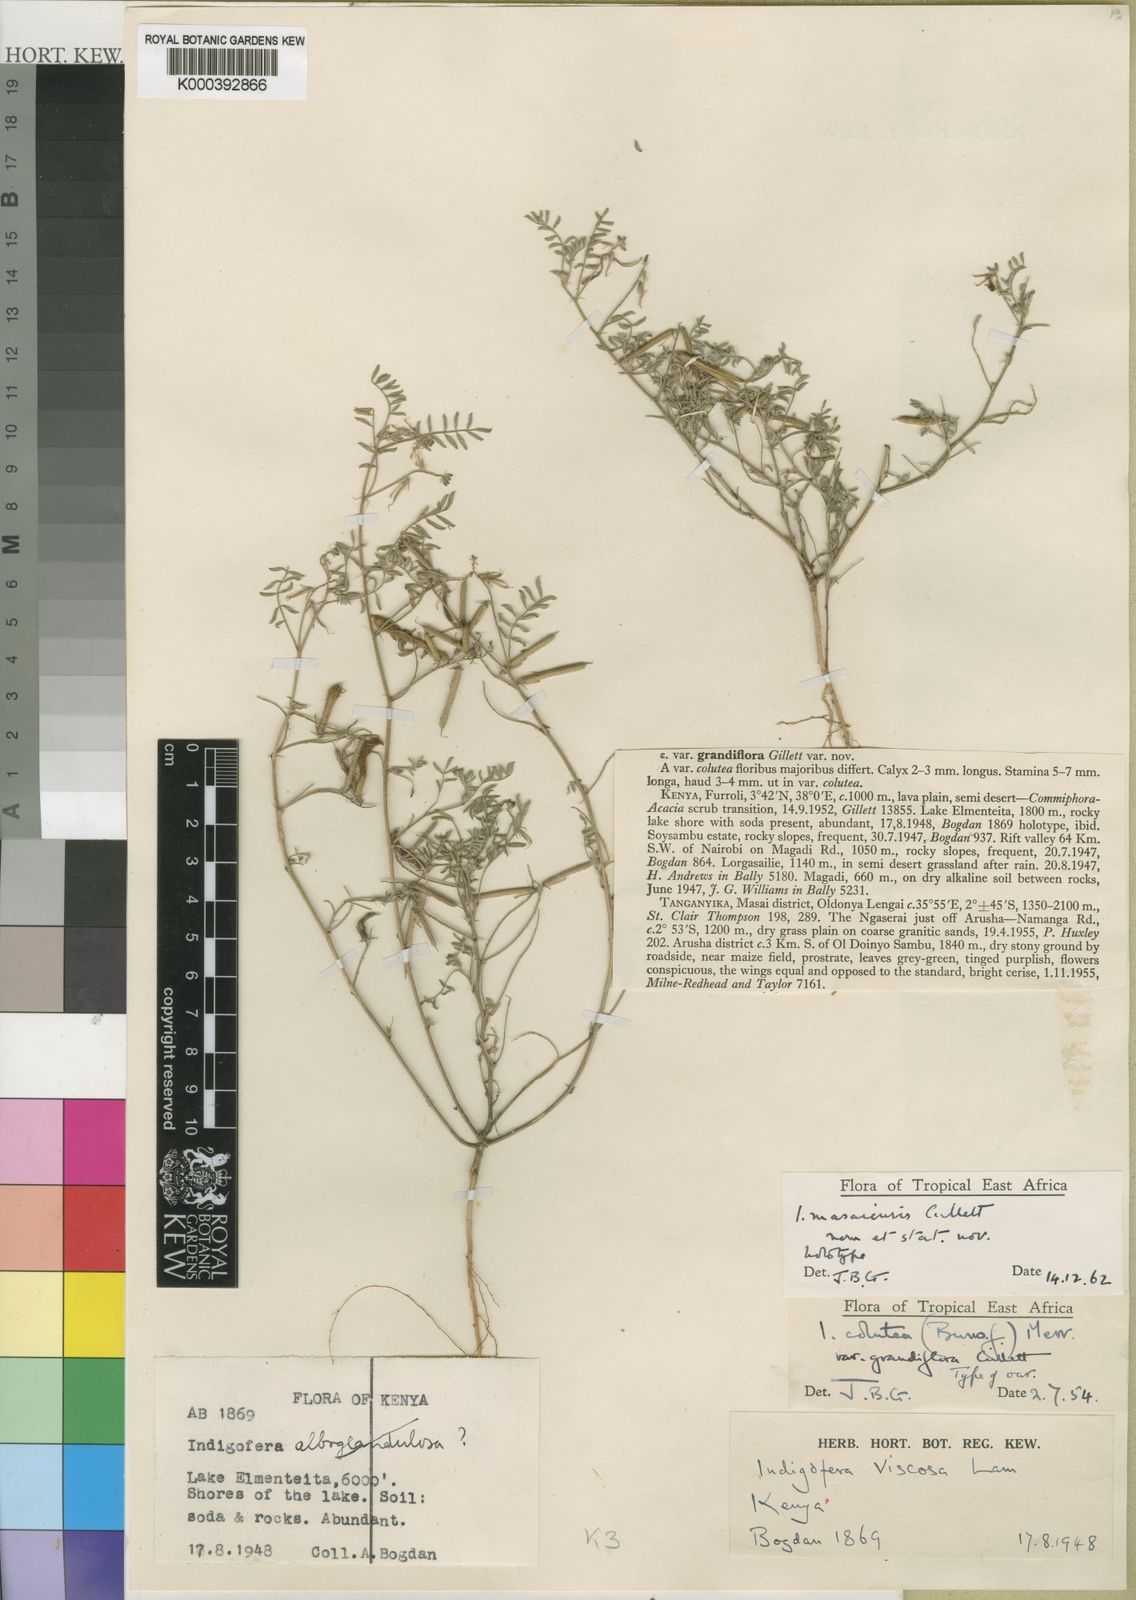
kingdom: Plantae
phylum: Tracheophyta
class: Magnoliopsida
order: Fabales
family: Fabaceae
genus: Indigofera
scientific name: Indigofera masaiensis
